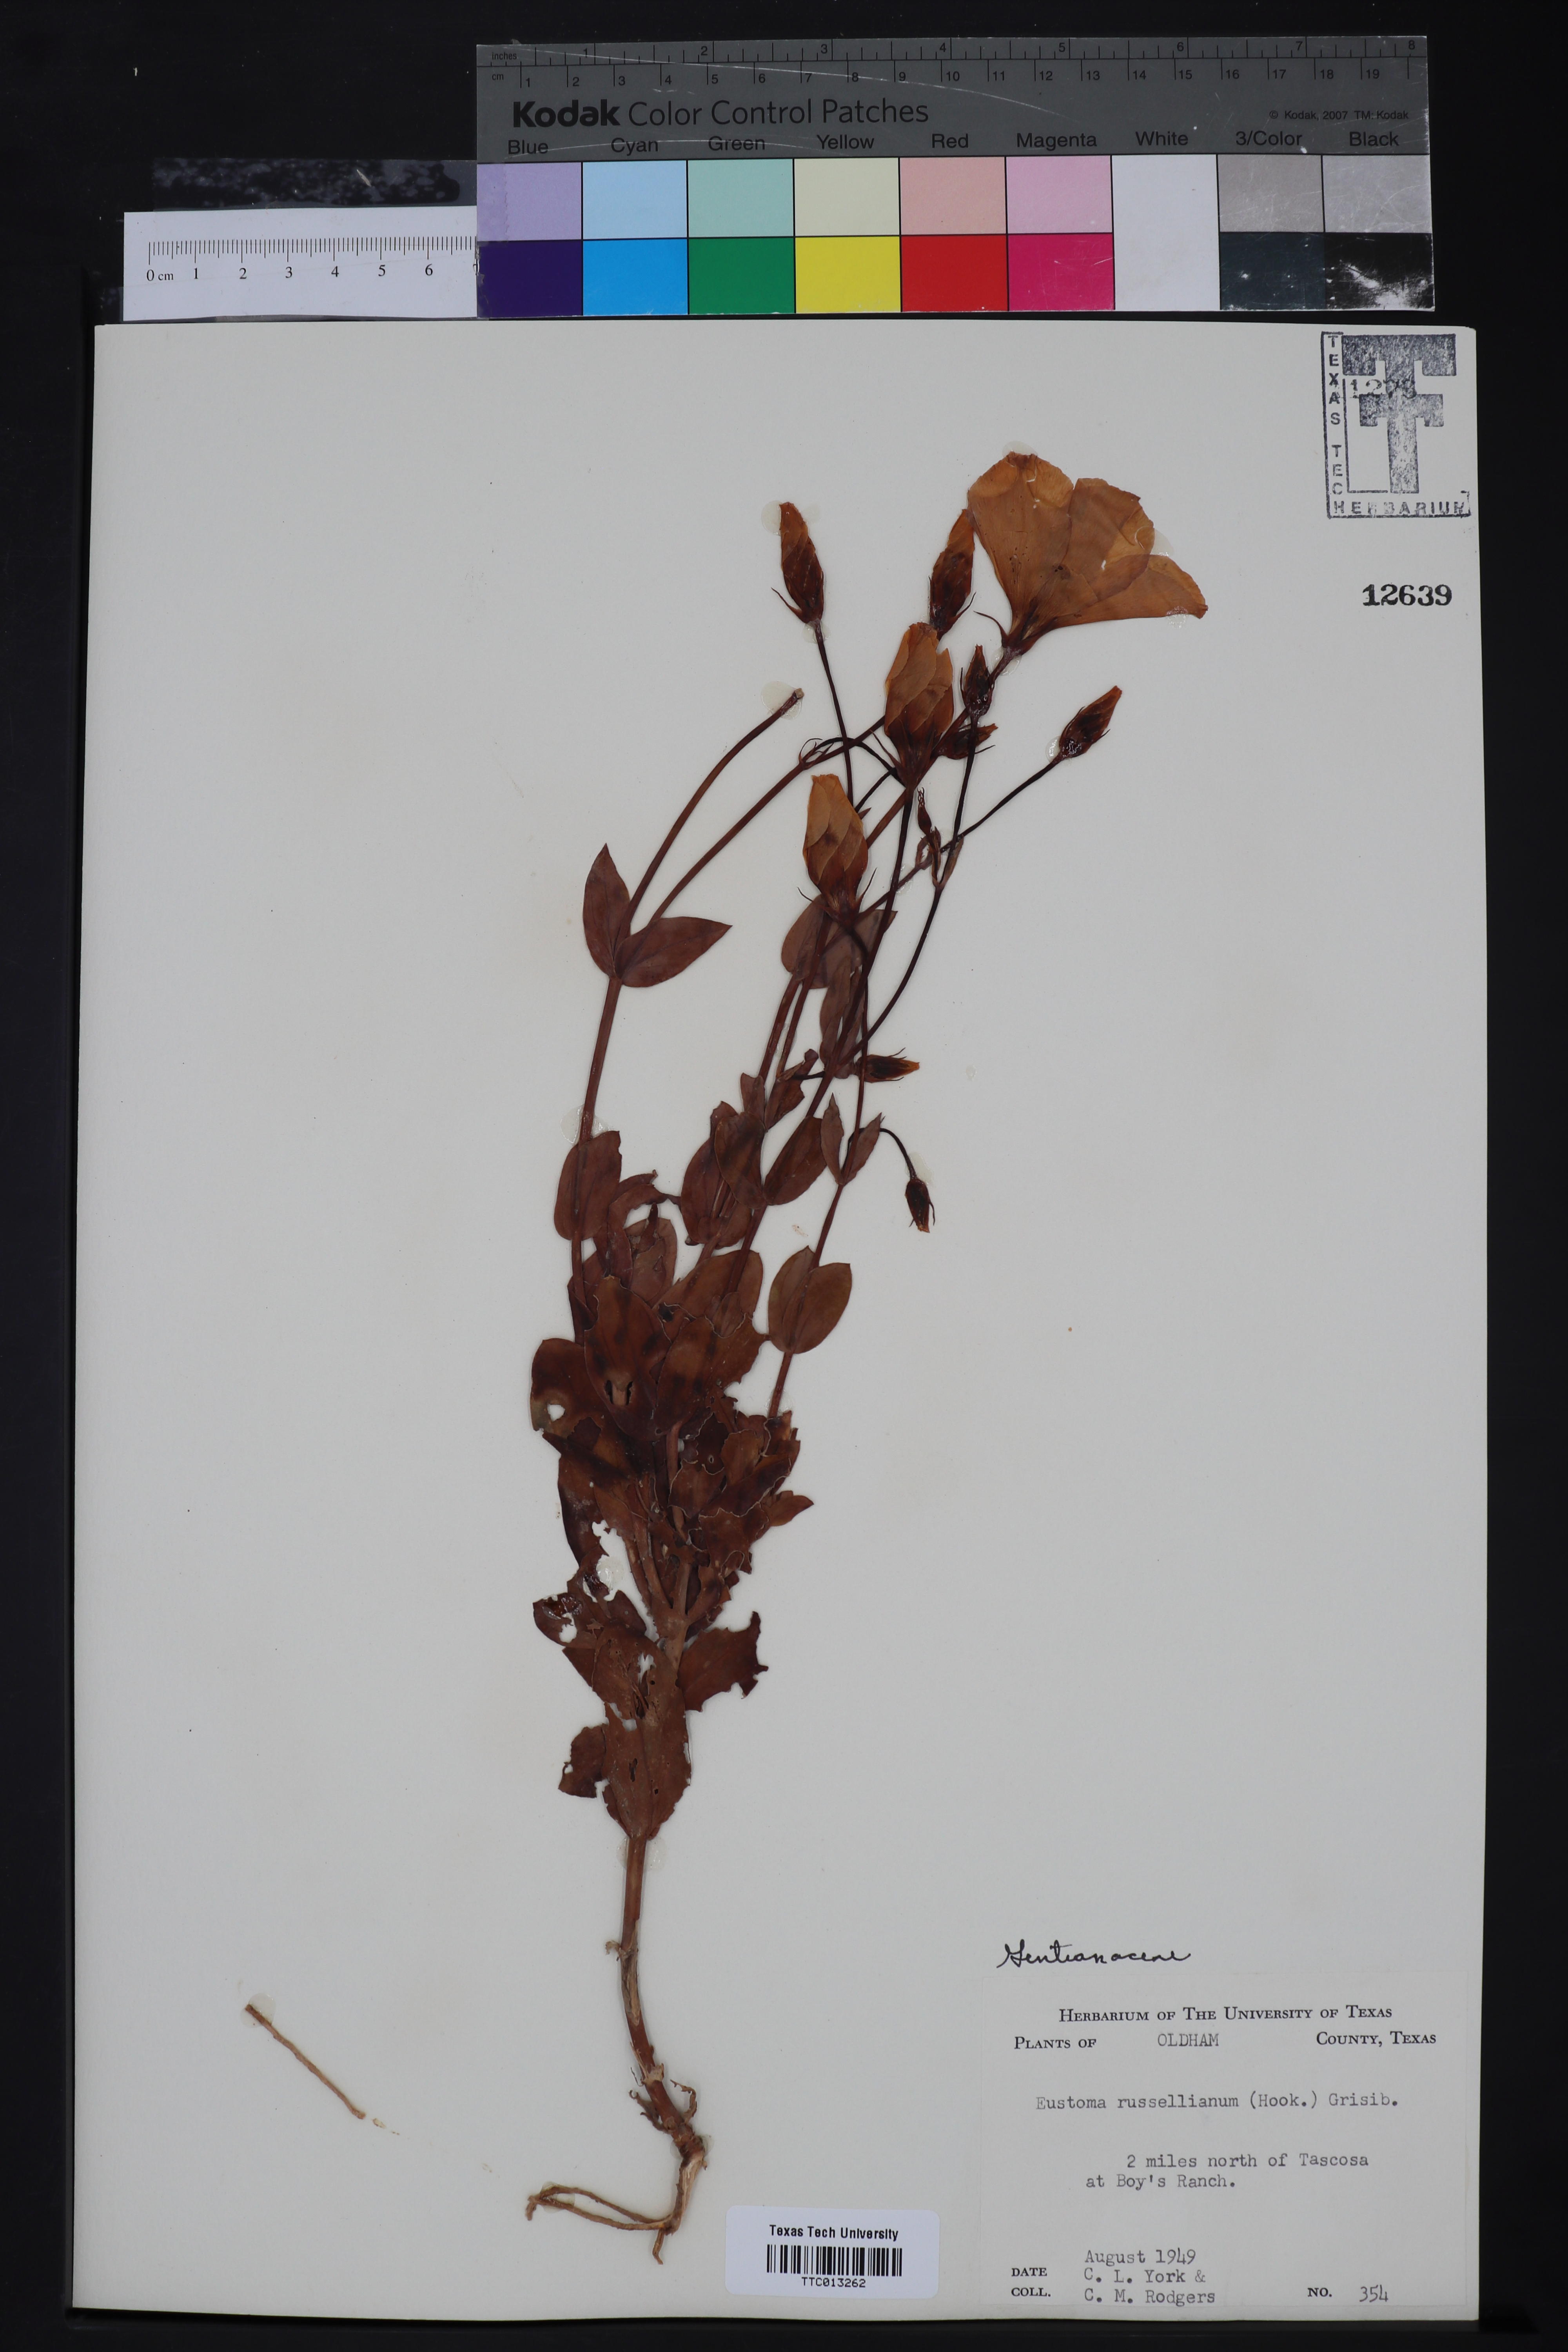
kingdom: Plantae
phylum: Tracheophyta
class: Magnoliopsida
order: Gentianales
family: Gentianaceae
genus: Eustoma
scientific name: Eustoma russellianum
